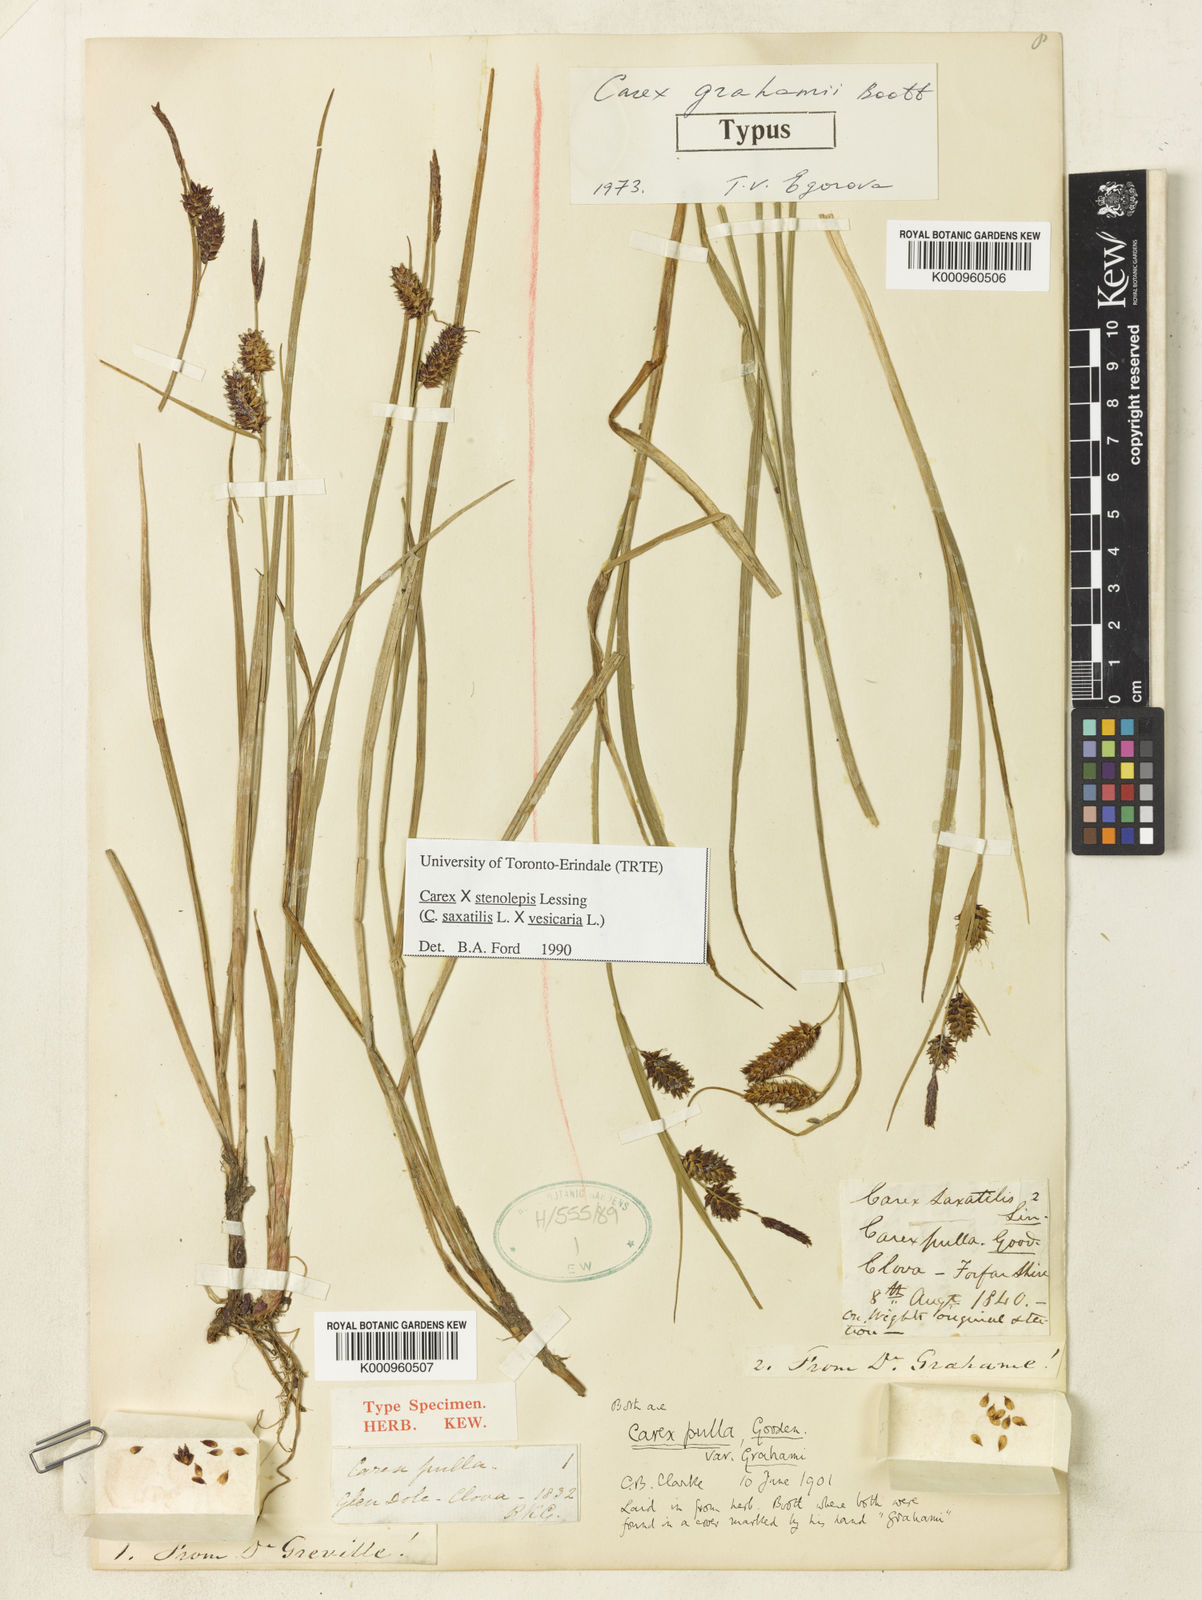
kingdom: Plantae
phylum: Tracheophyta
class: Liliopsida
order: Poales
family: Cyperaceae
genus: Carex
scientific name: Carex vesicaria
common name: Bladder-sedge
